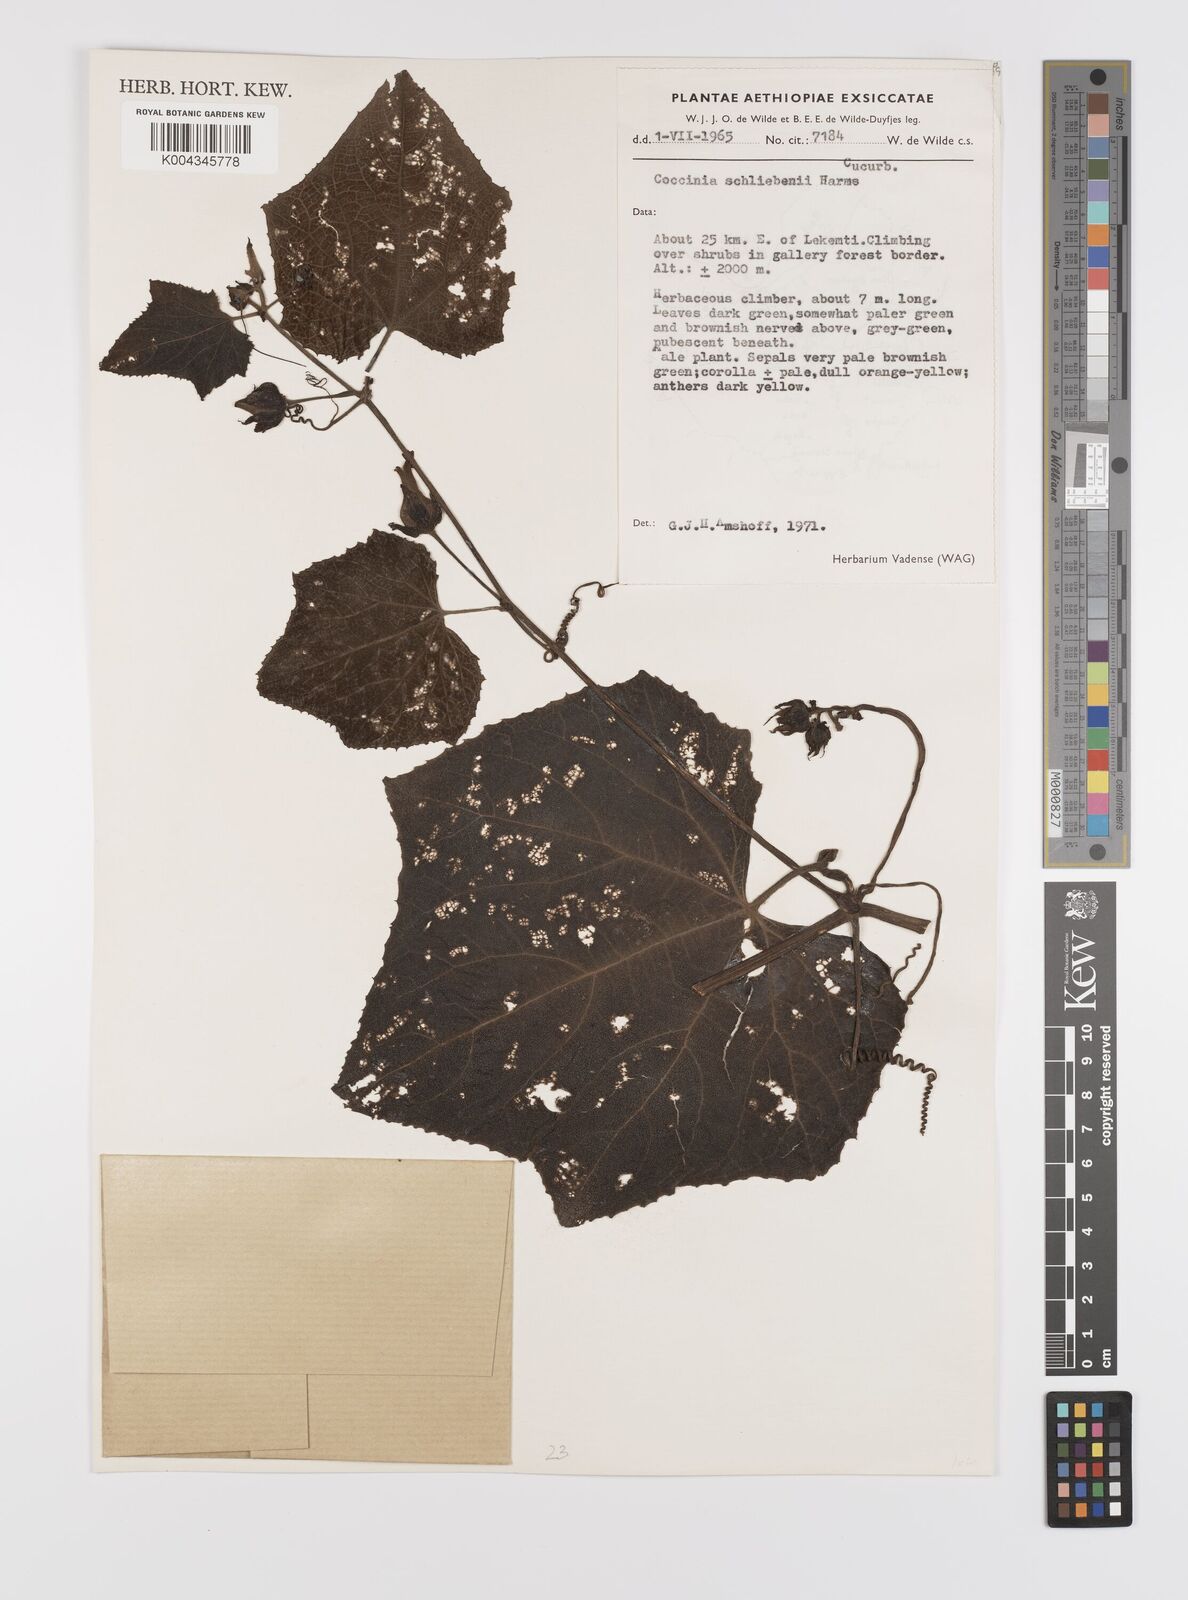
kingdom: Plantae
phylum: Tracheophyta
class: Magnoliopsida
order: Cucurbitales
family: Cucurbitaceae
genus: Coccinia
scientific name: Coccinia schliebenii
